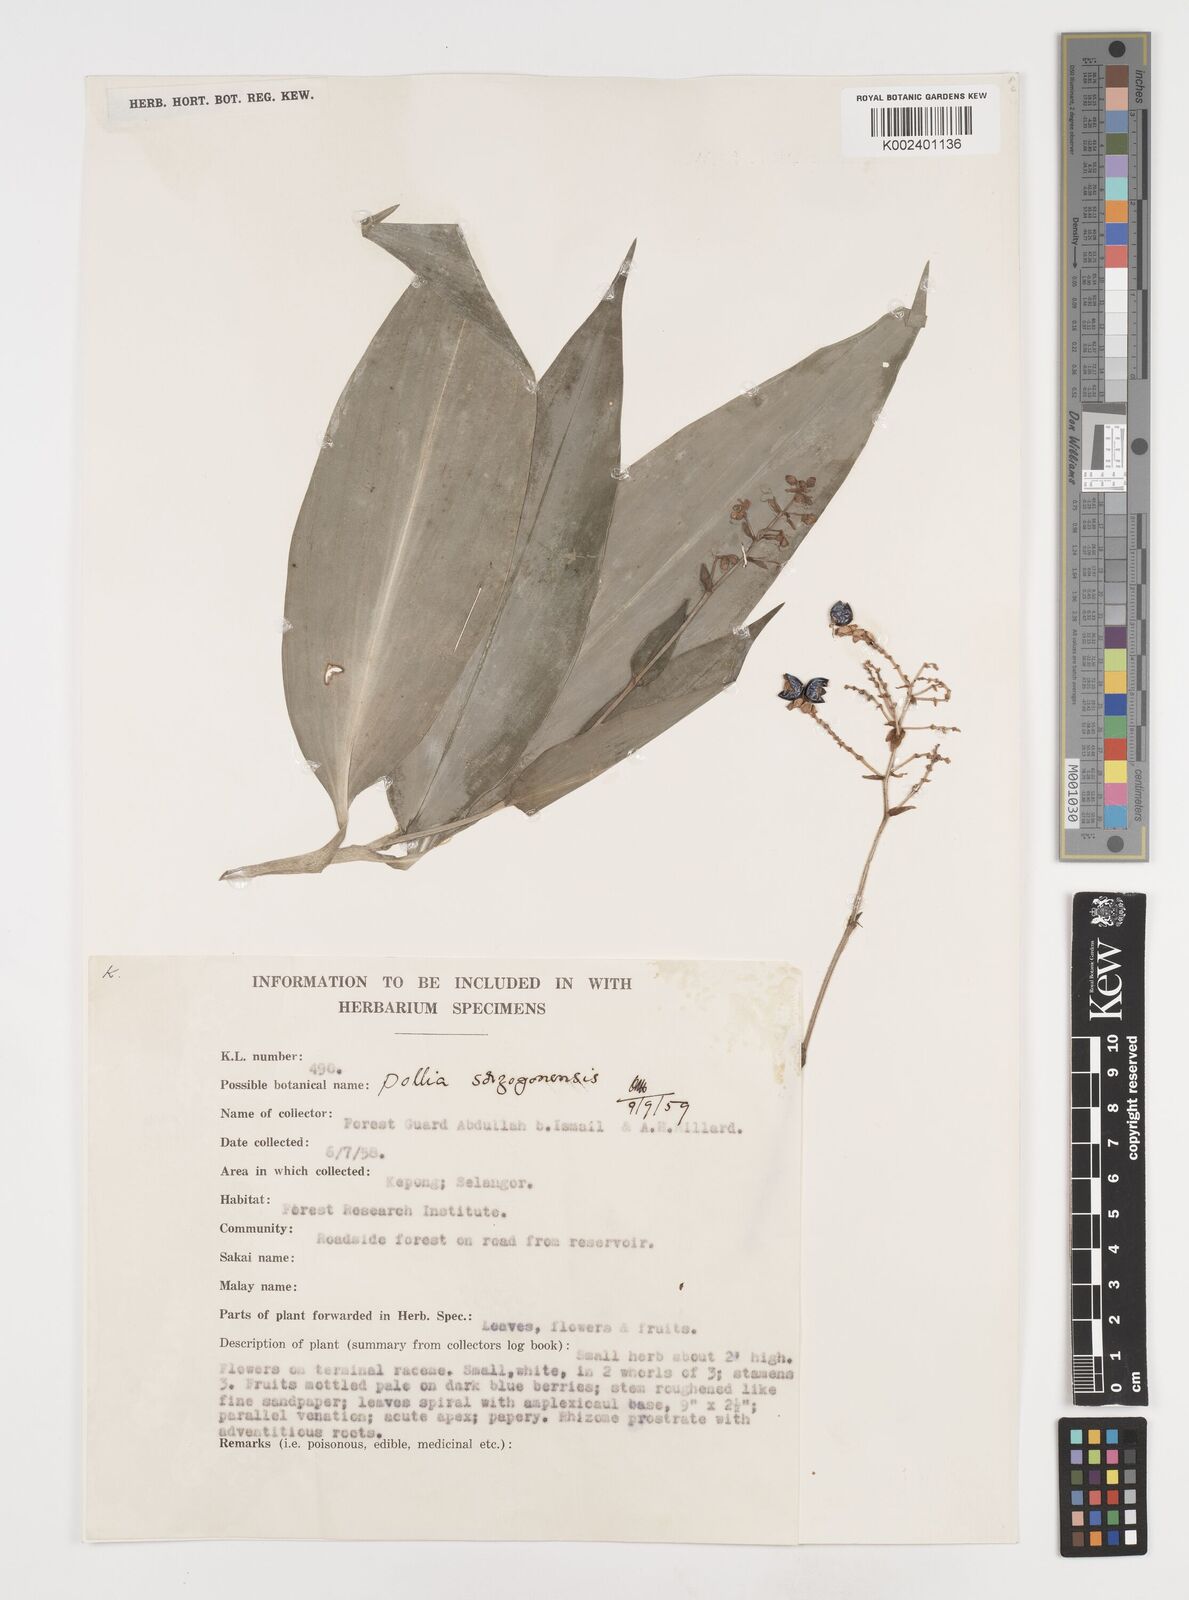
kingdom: Plantae
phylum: Tracheophyta
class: Liliopsida
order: Commelinales
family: Commelinaceae
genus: Pollia
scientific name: Pollia secundiflora
